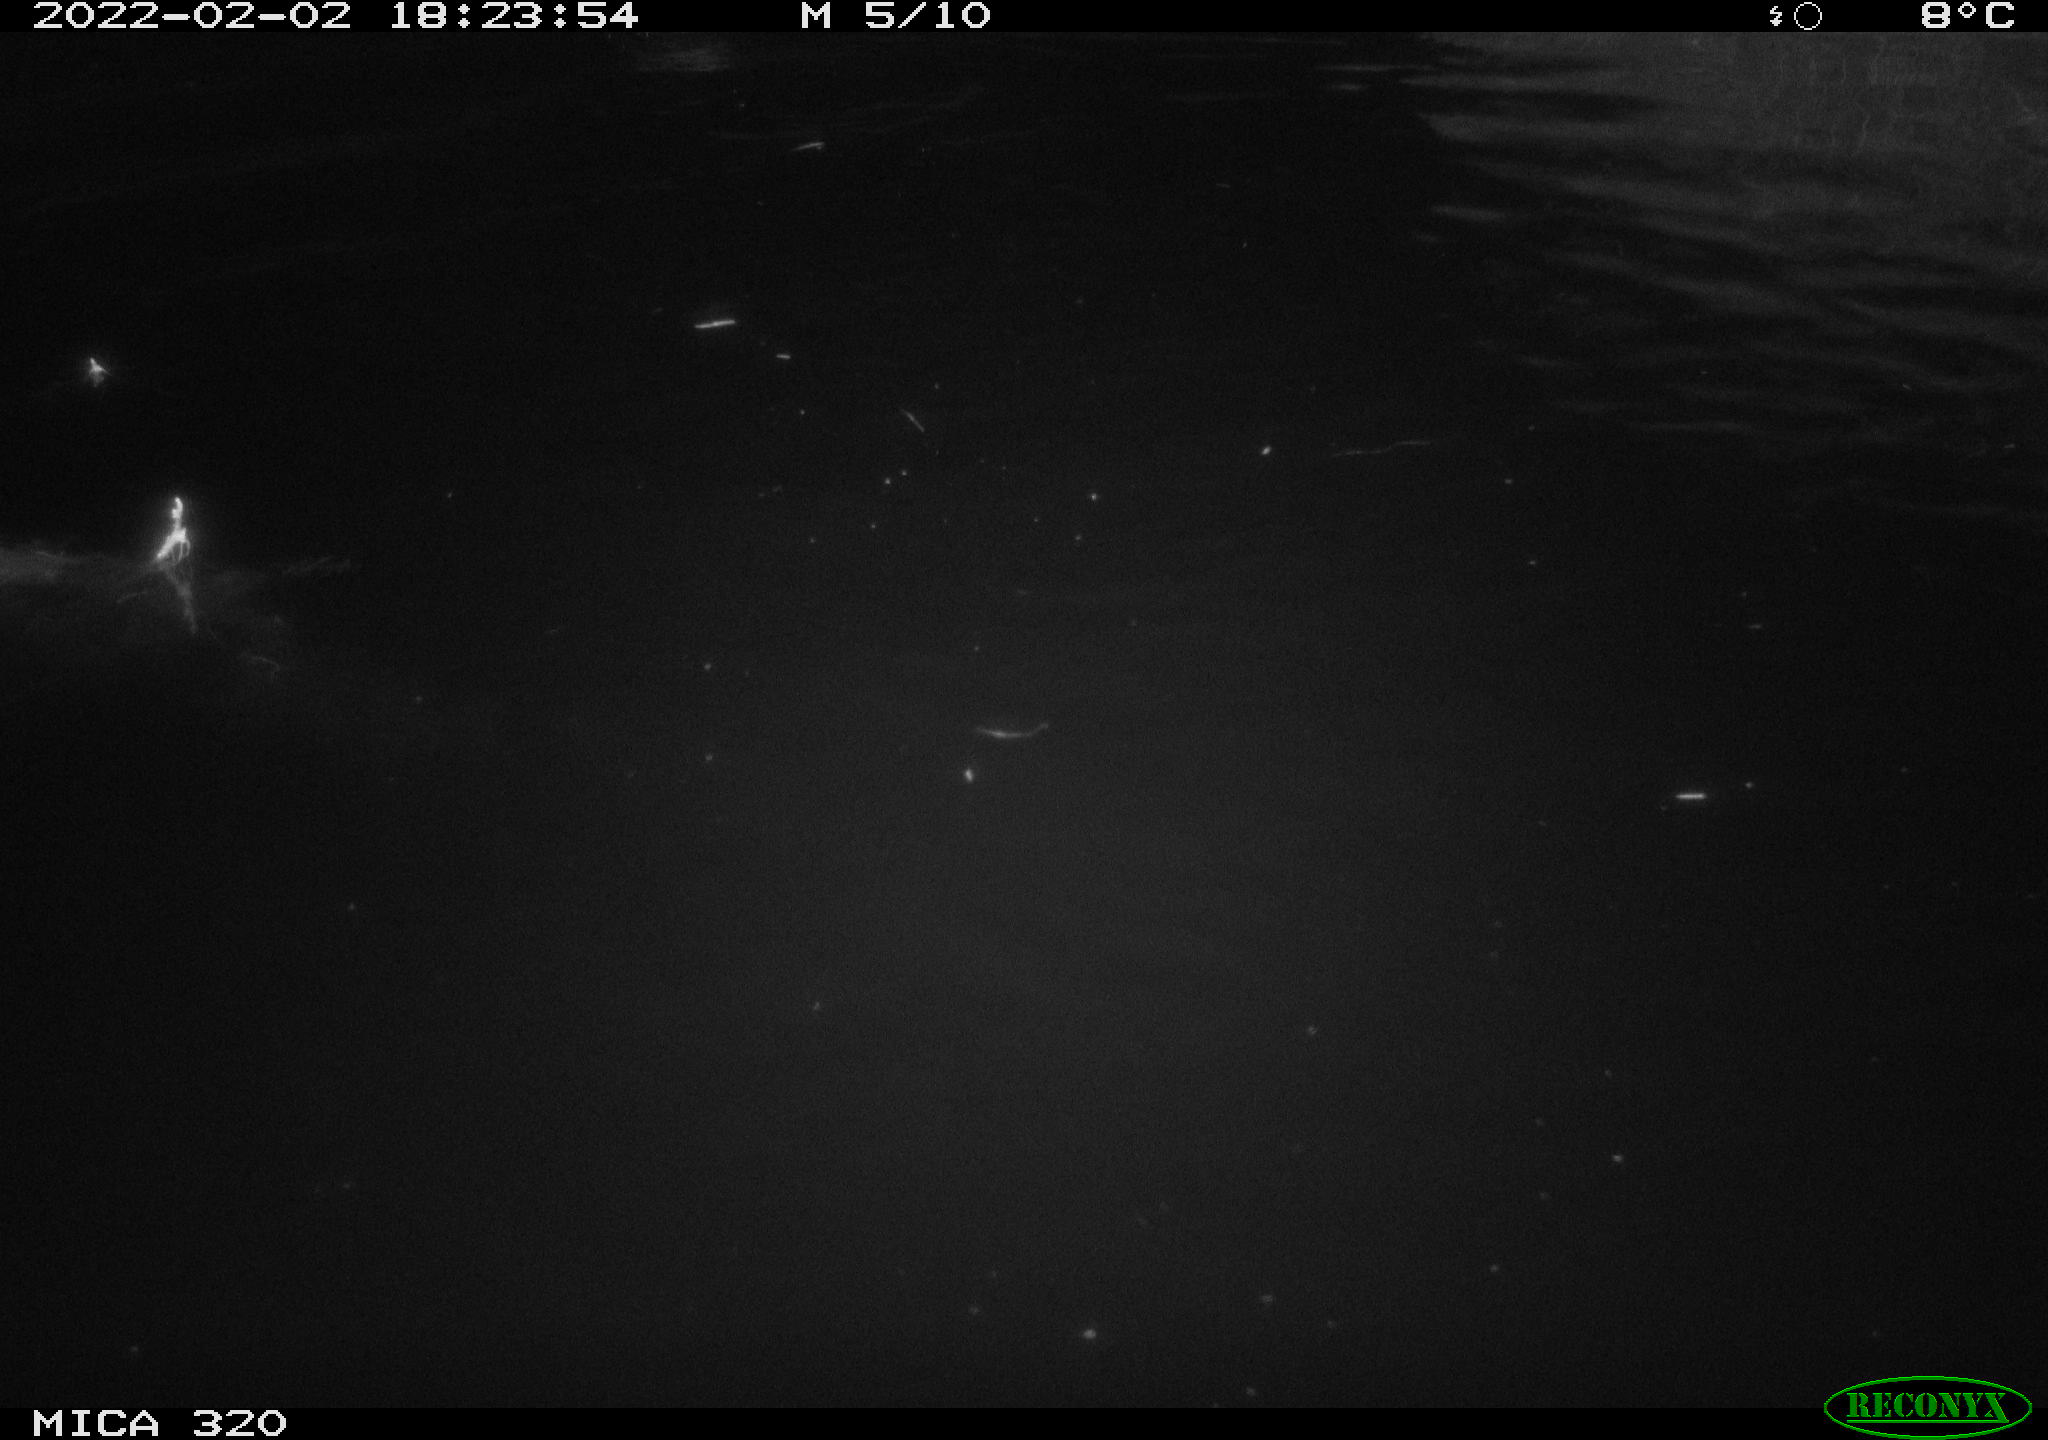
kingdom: Animalia
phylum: Chordata
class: Aves
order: Anseriformes
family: Anatidae
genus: Anas
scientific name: Anas
